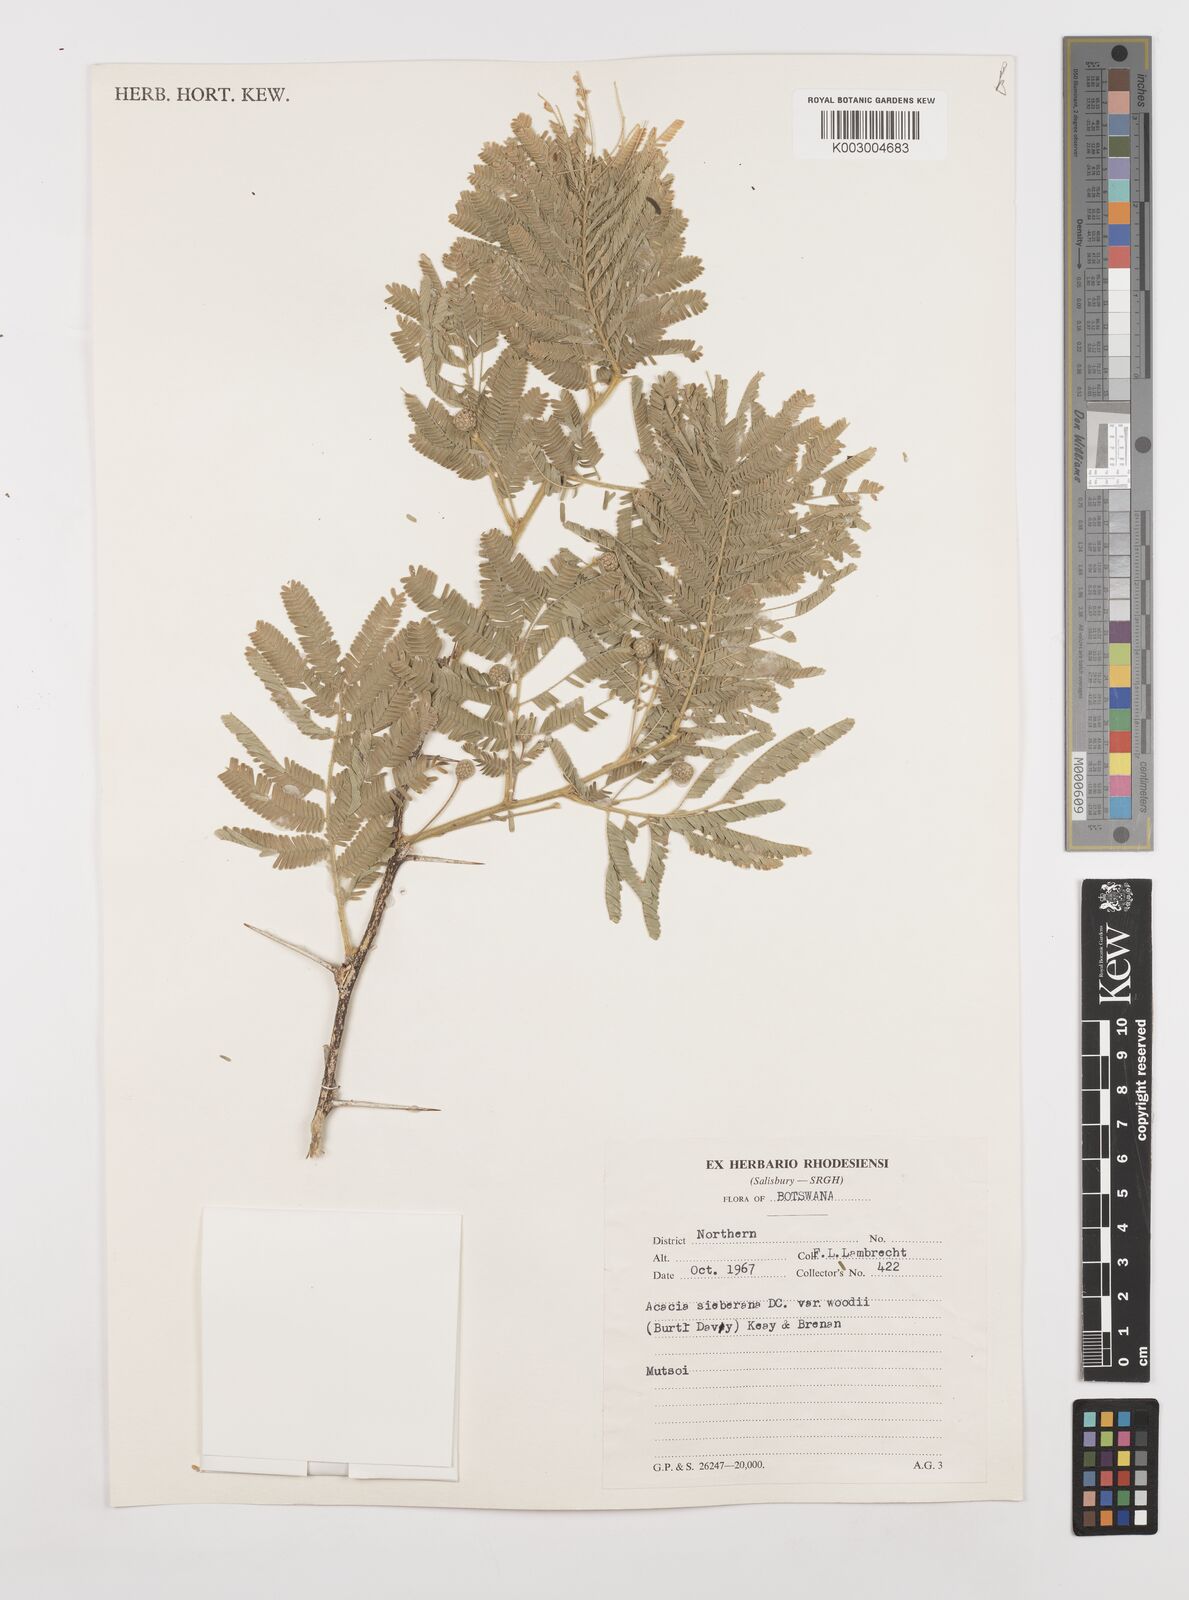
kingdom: Plantae
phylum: Tracheophyta
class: Magnoliopsida
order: Fabales
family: Fabaceae
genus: Vachellia
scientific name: Vachellia sieberiana
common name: Flat-topped thorn
